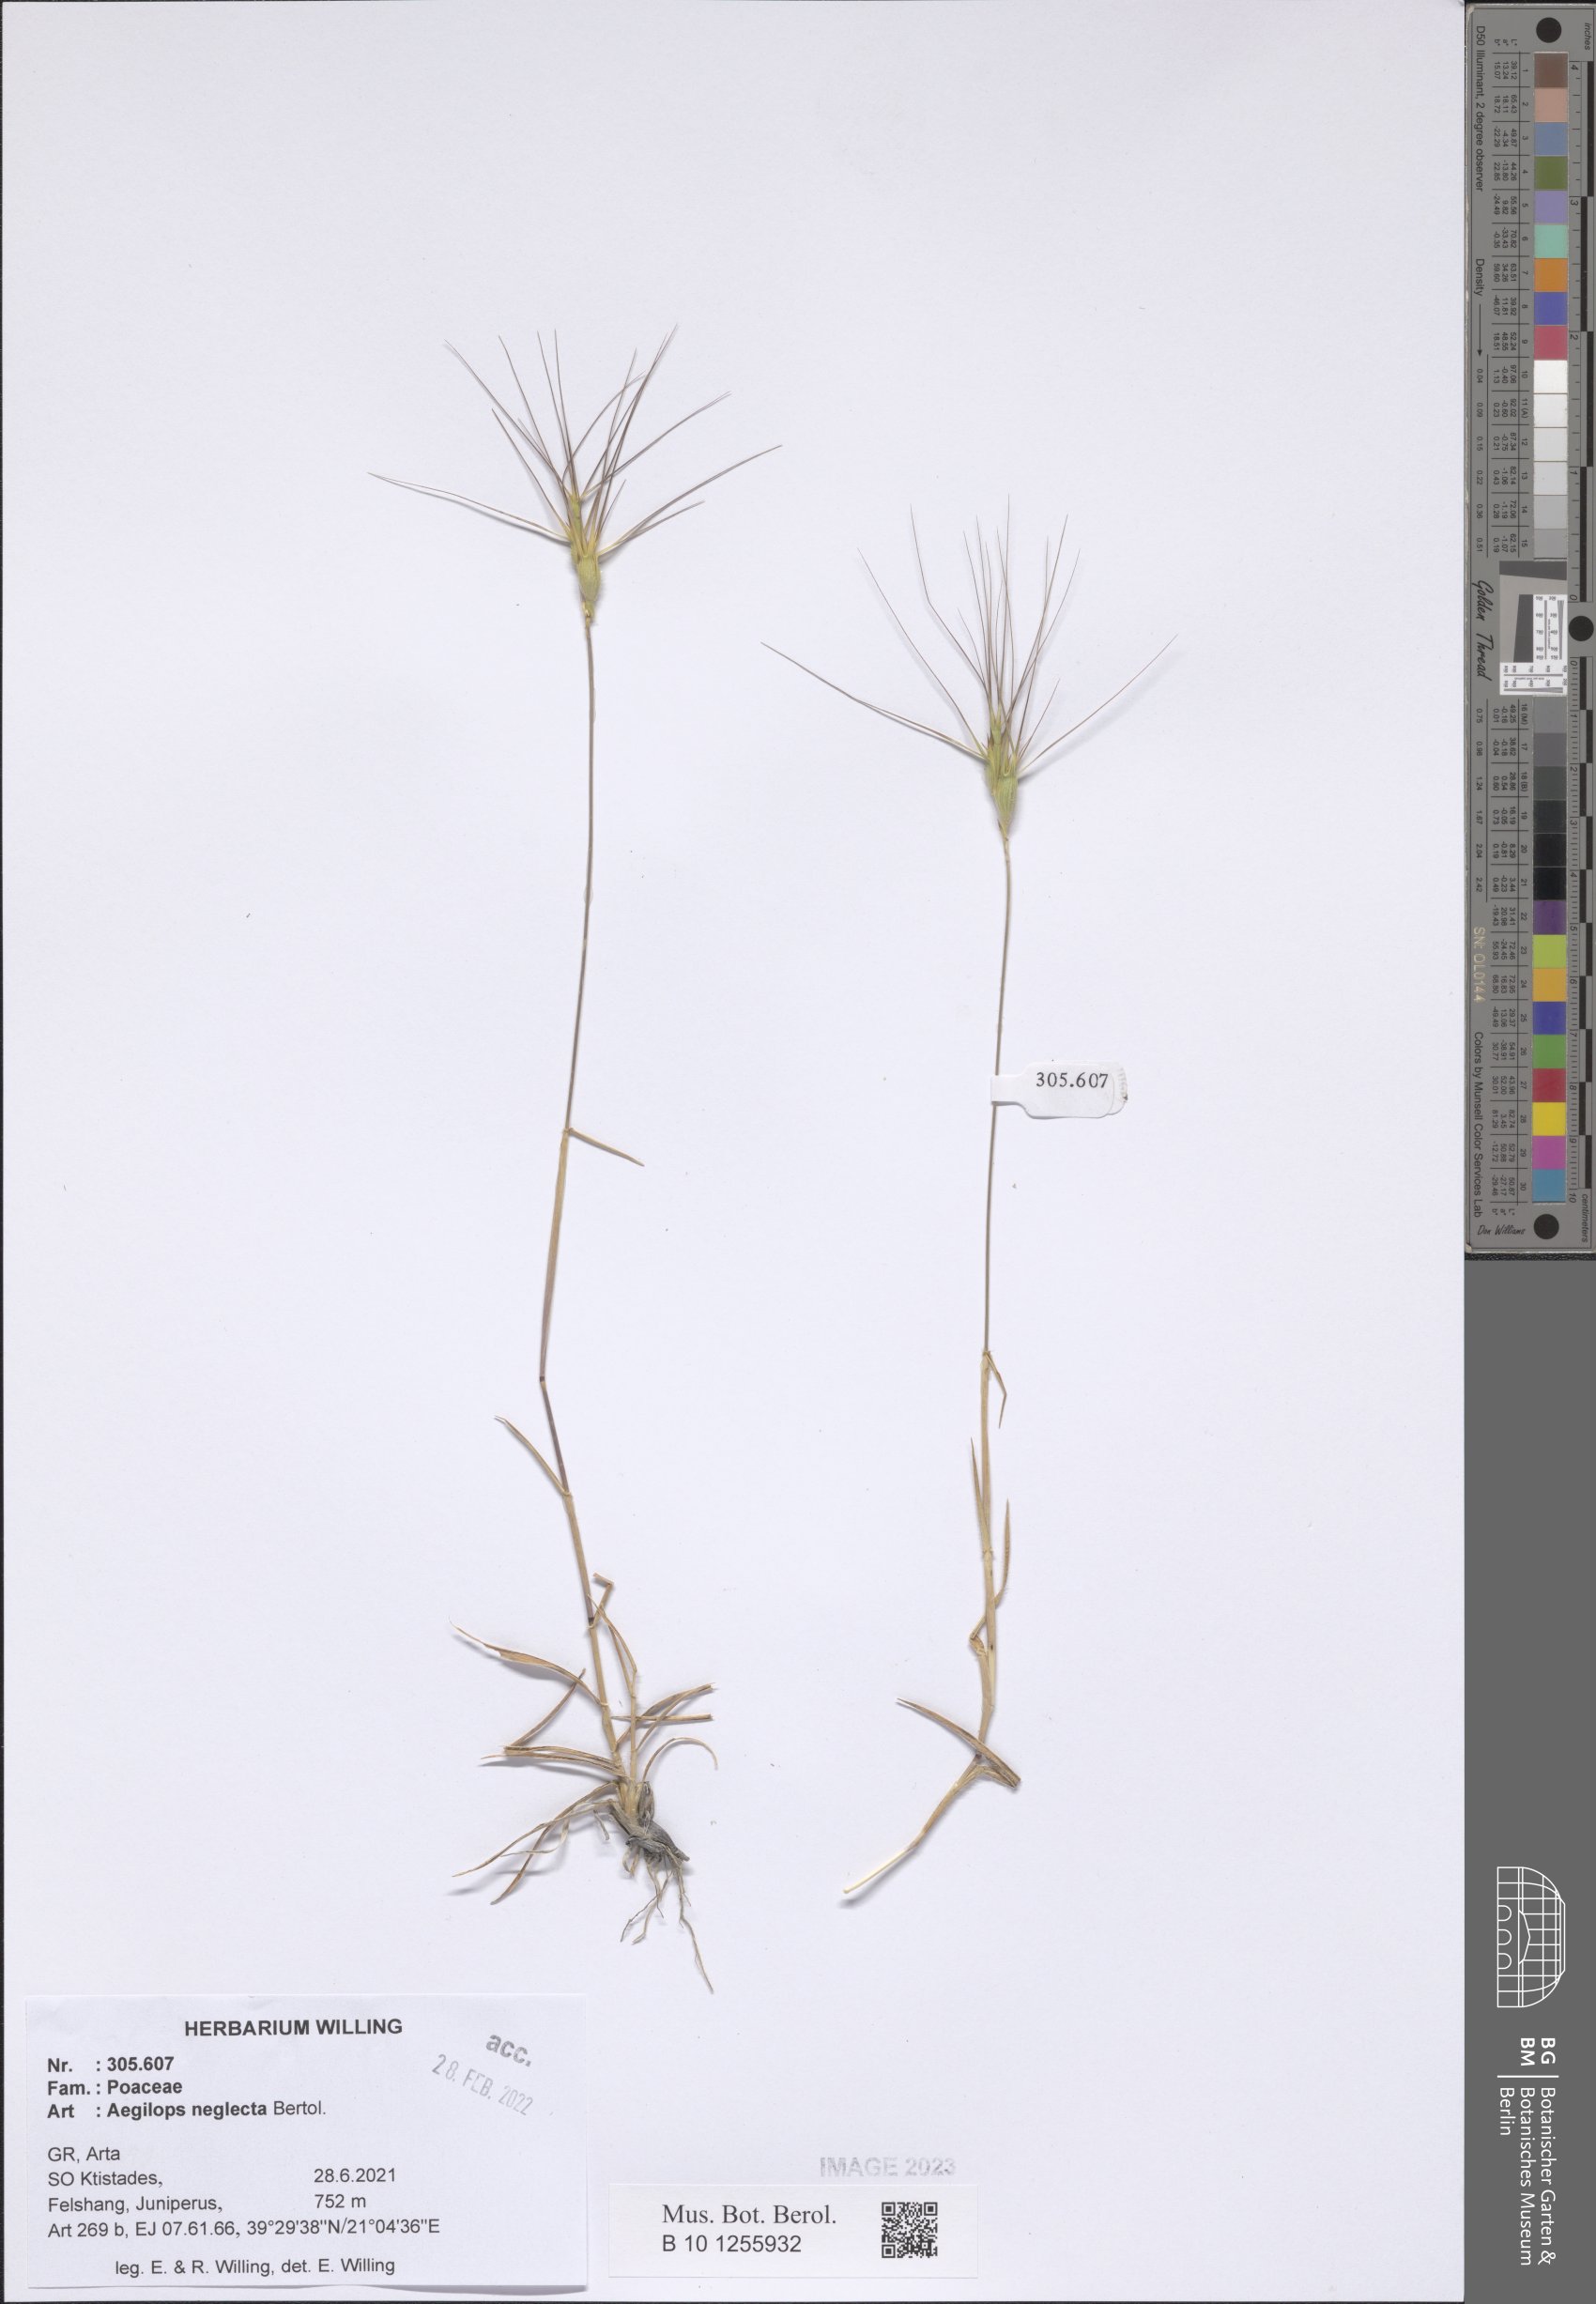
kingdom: Plantae
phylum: Tracheophyta
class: Liliopsida
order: Poales
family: Poaceae
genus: Aegilops
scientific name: Aegilops neglecta
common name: Three-awn goat grass
